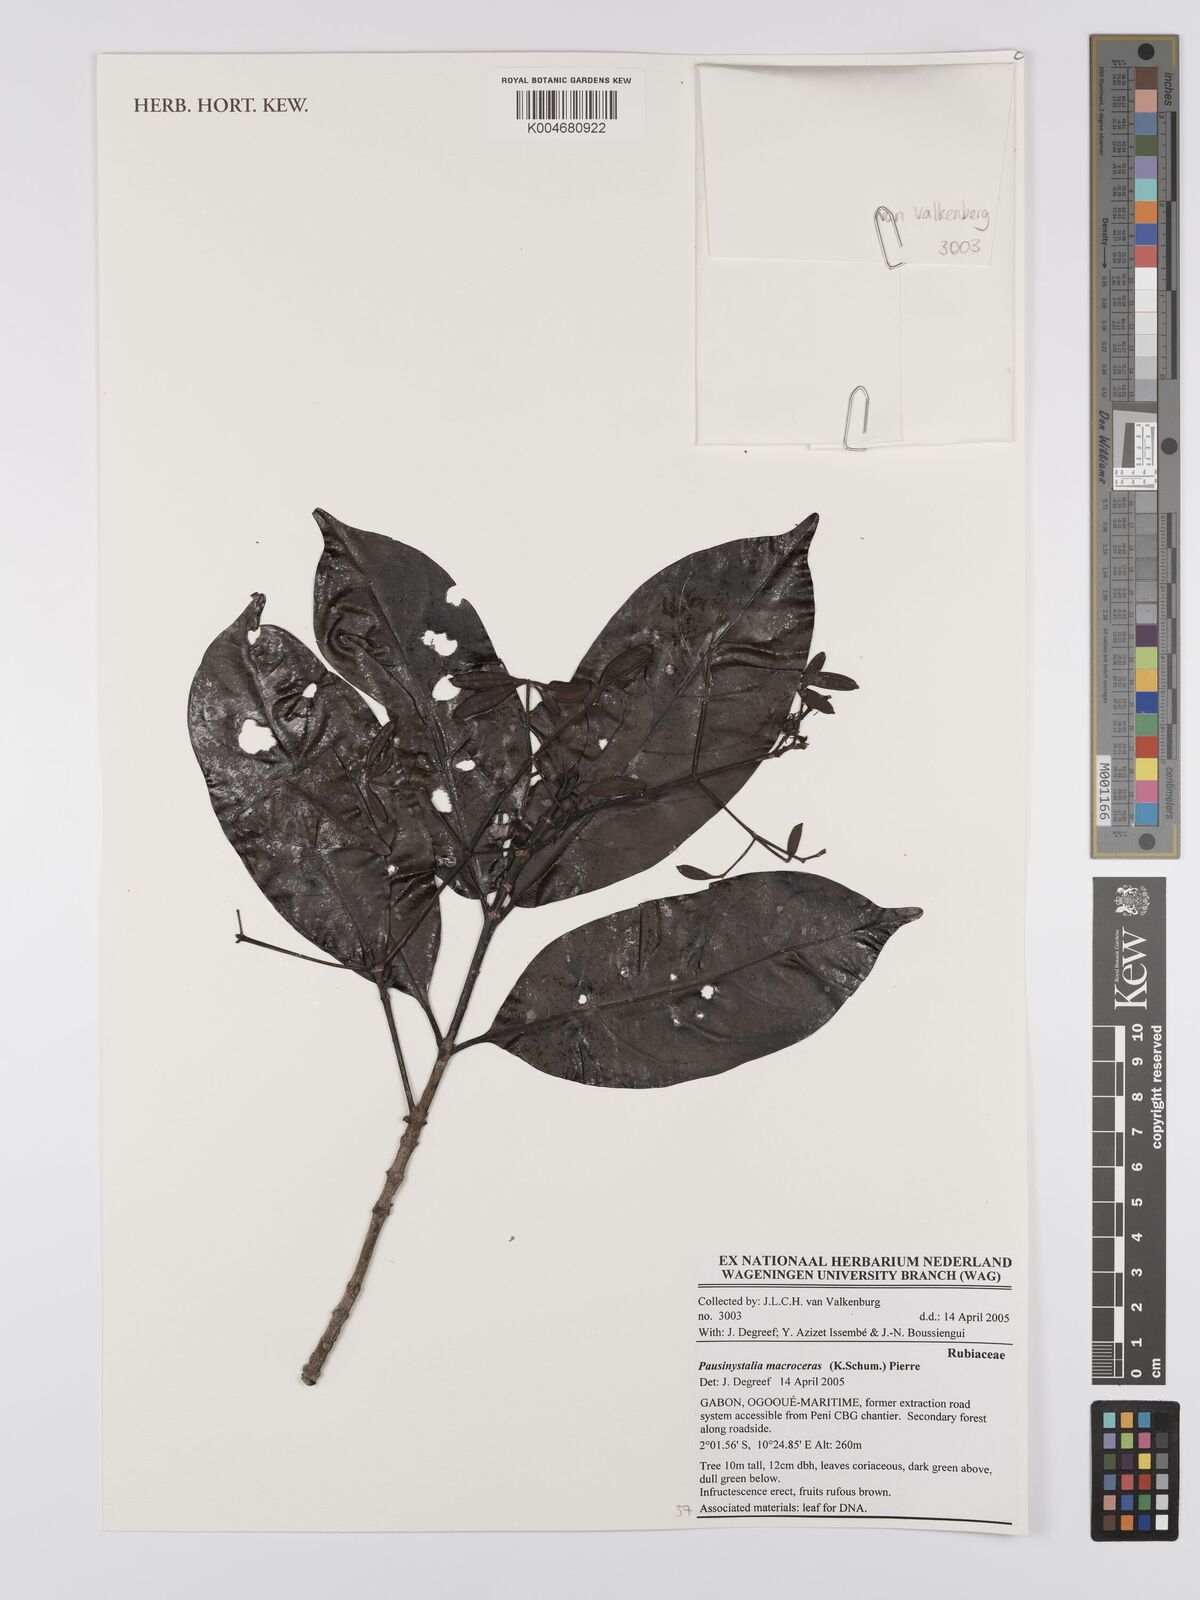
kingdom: Plantae
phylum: Tracheophyta
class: Magnoliopsida
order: Gentianales
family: Rubiaceae
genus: Corynanthe
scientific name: Corynanthe macroceras
